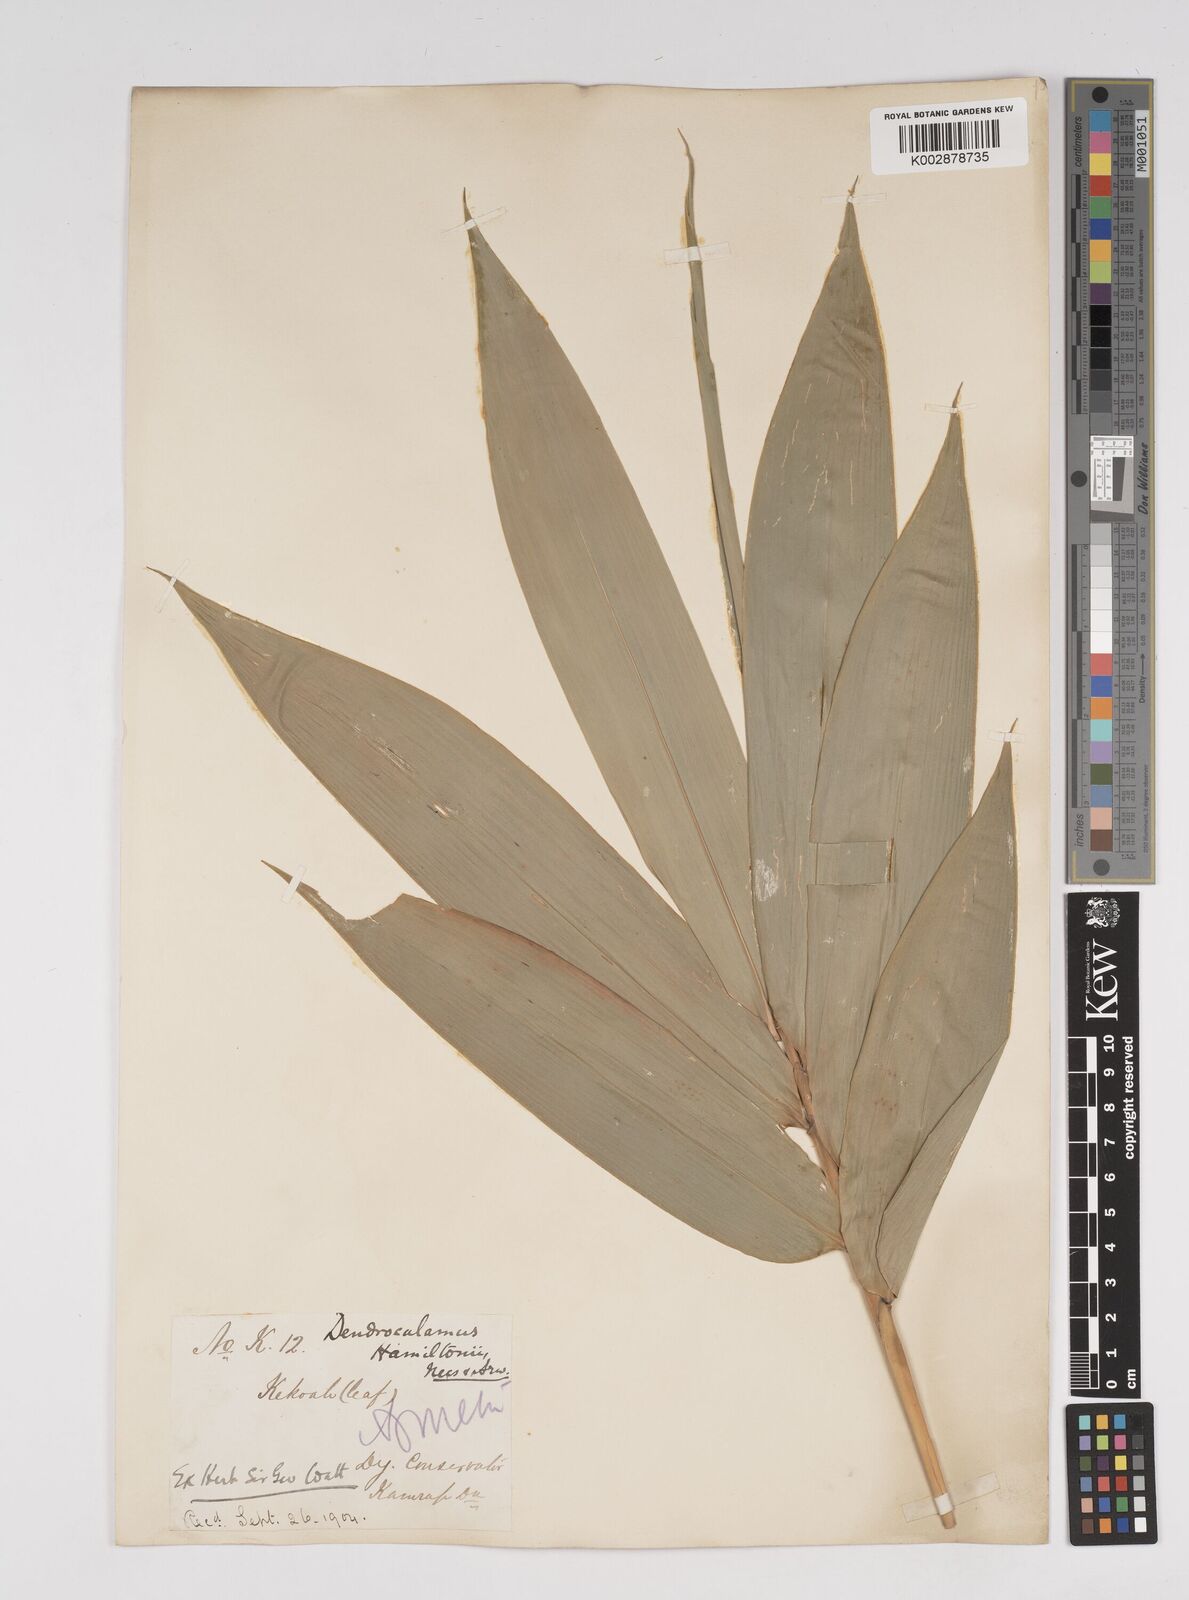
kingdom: Plantae
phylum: Tracheophyta
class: Liliopsida
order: Poales
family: Poaceae
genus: Dendrocalamus
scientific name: Dendrocalamus hamiltonii
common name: Tama bamboo
